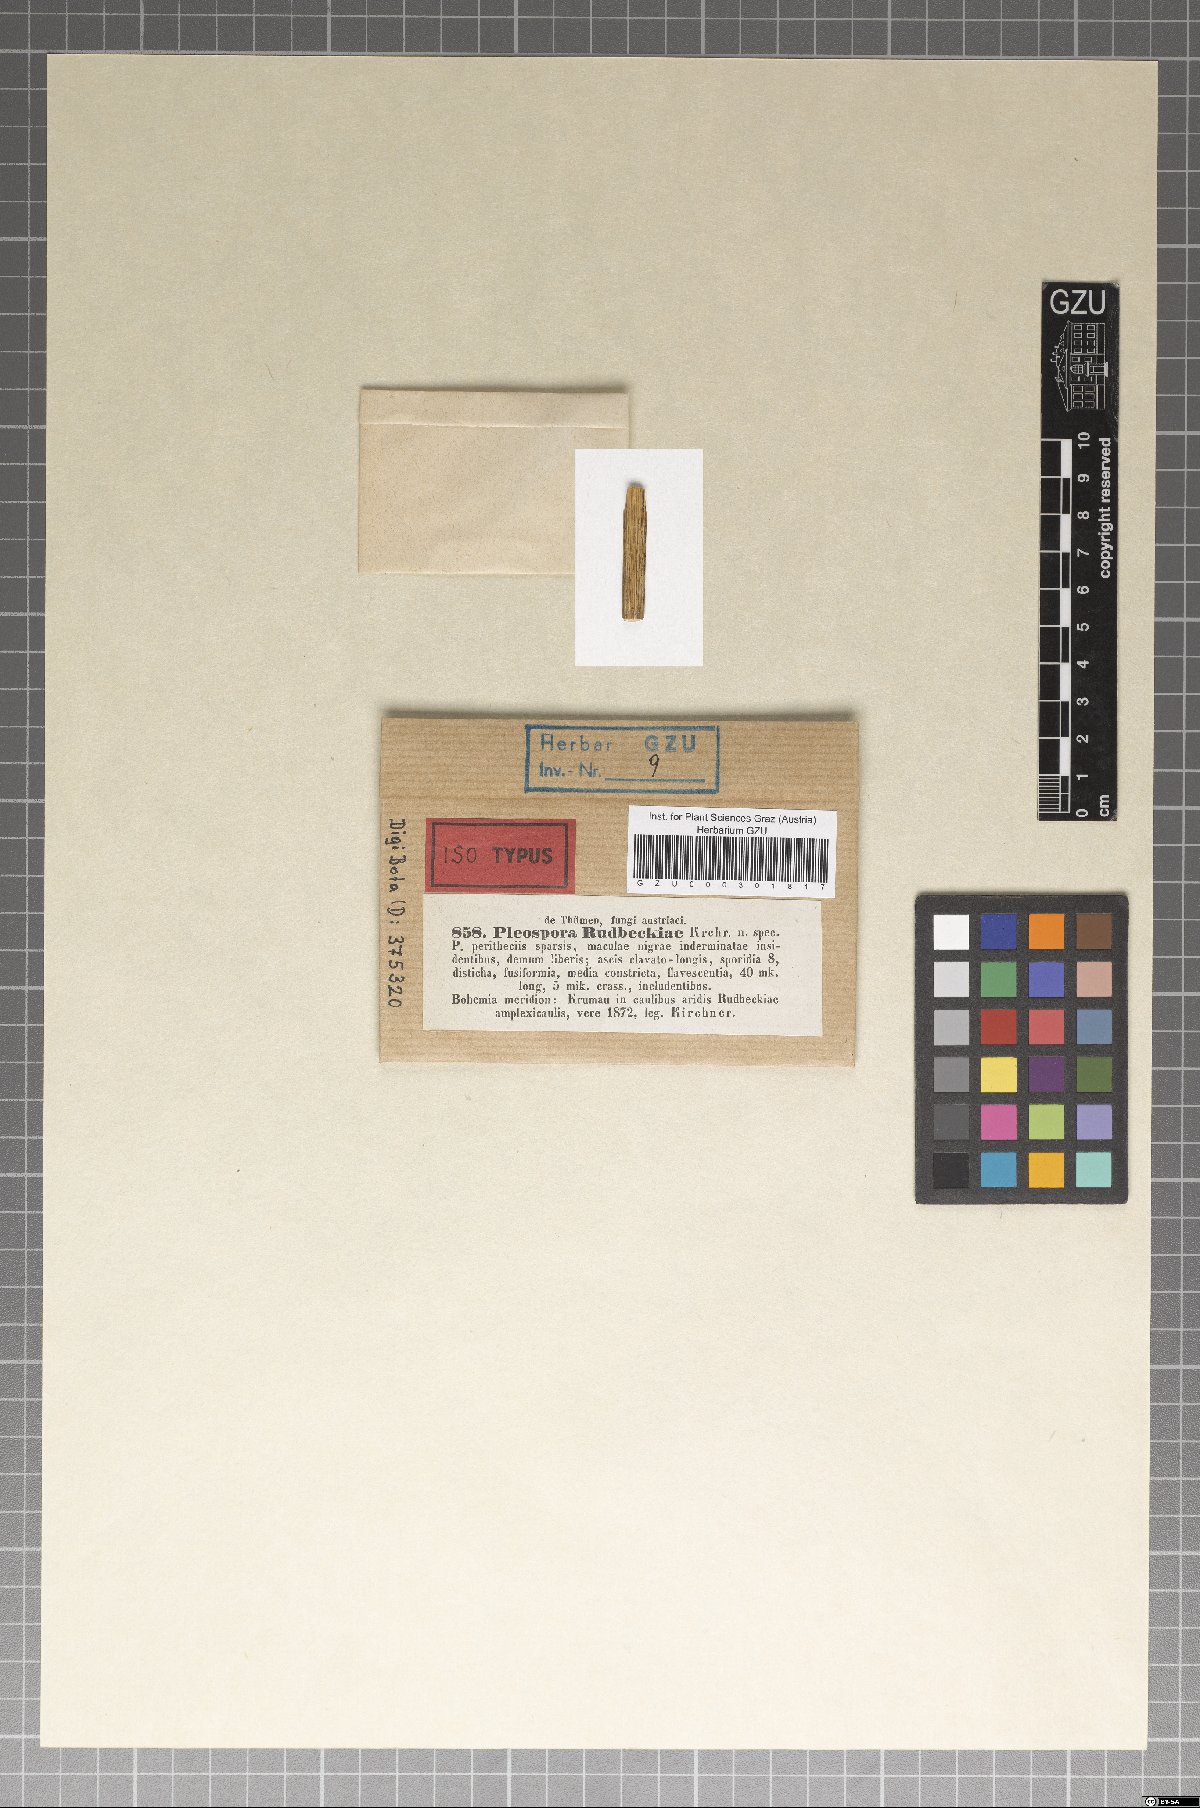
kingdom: Fungi
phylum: Ascomycota
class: Dothideomycetes
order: Pleosporales
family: Leptosphaeriaceae
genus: Leptosphaeria
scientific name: Leptosphaeria rudbeckiae
